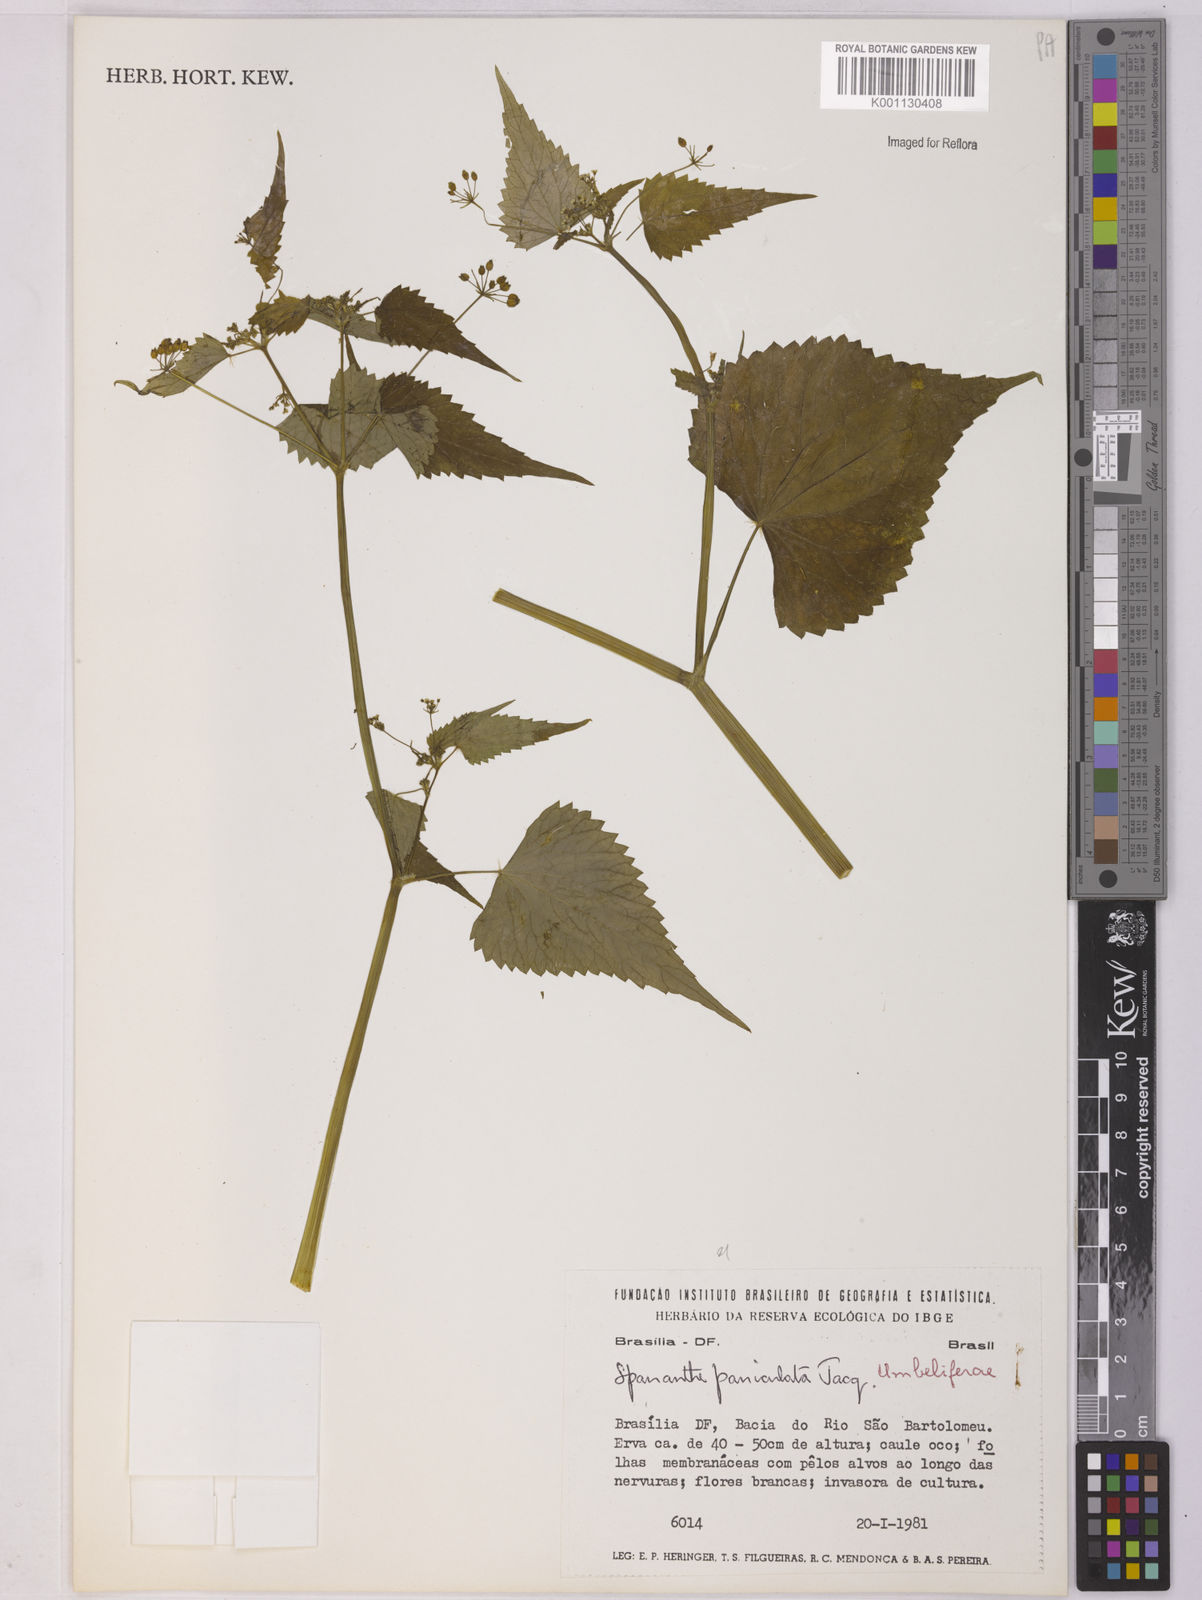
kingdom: Plantae
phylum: Tracheophyta
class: Magnoliopsida
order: Apiales
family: Apiaceae
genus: Spananthe
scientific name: Spananthe paniculata
